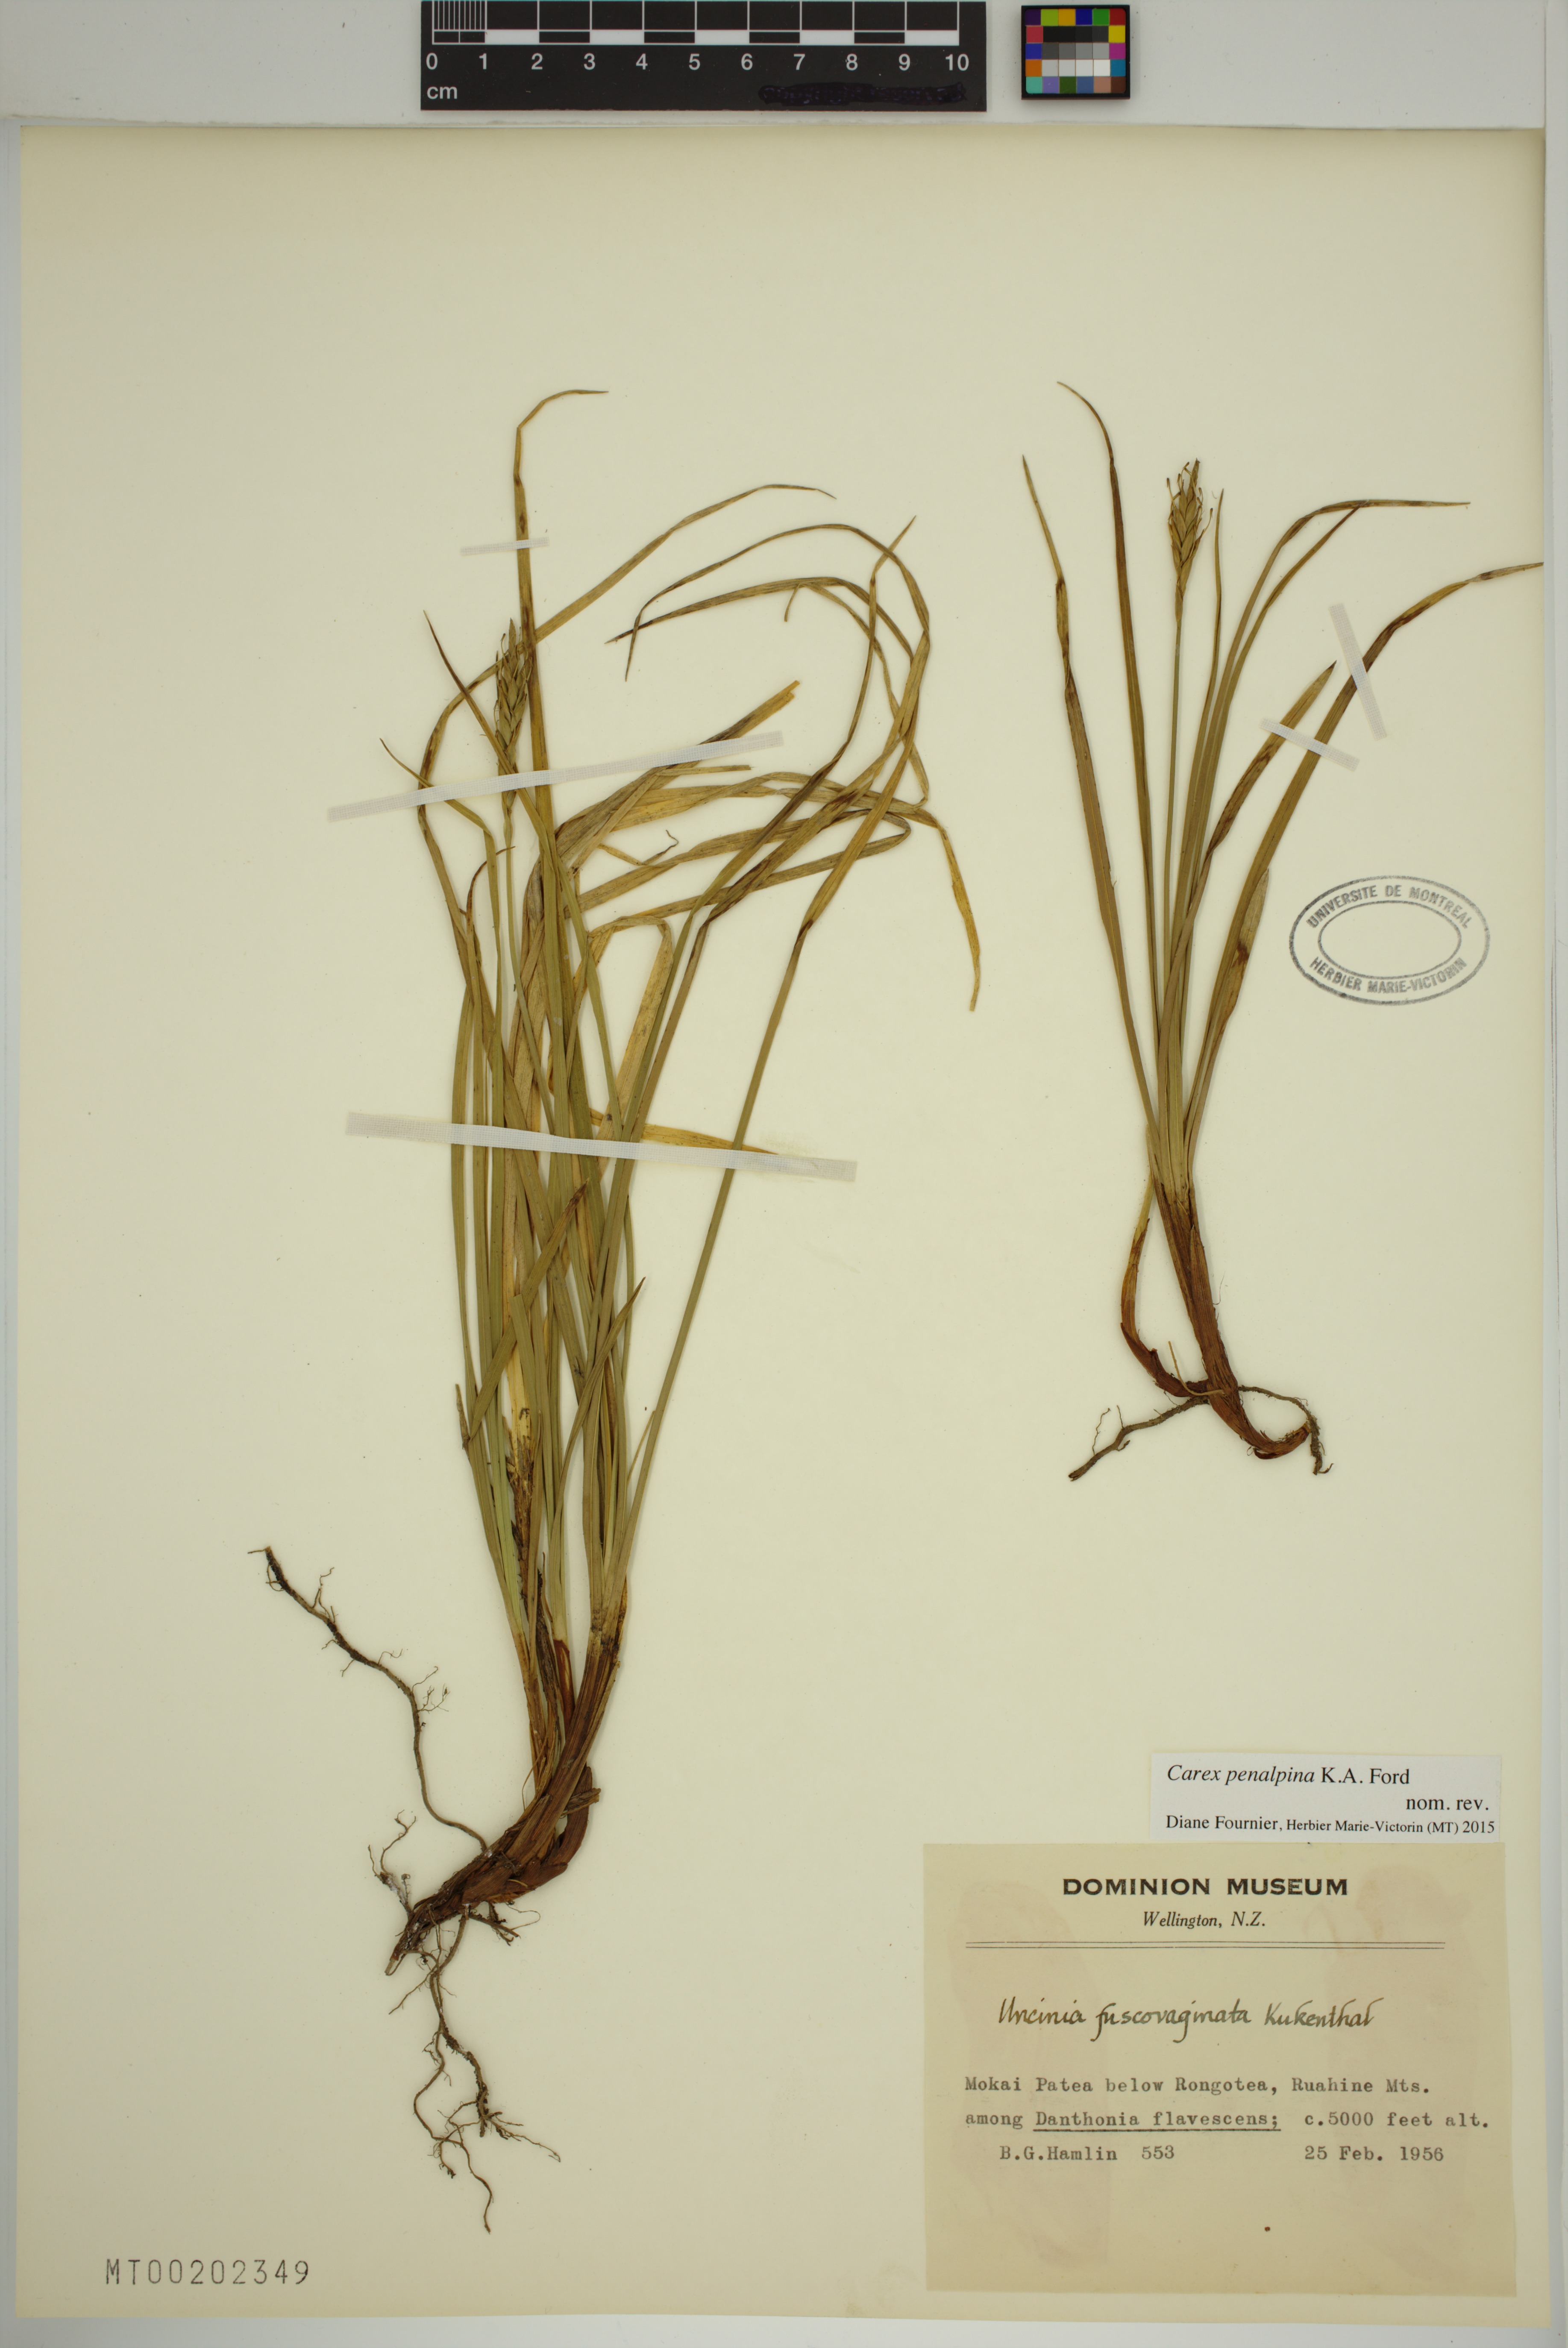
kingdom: Plantae
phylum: Tracheophyta
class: Liliopsida
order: Poales
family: Cyperaceae
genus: Carex
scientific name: Carex penalpina
